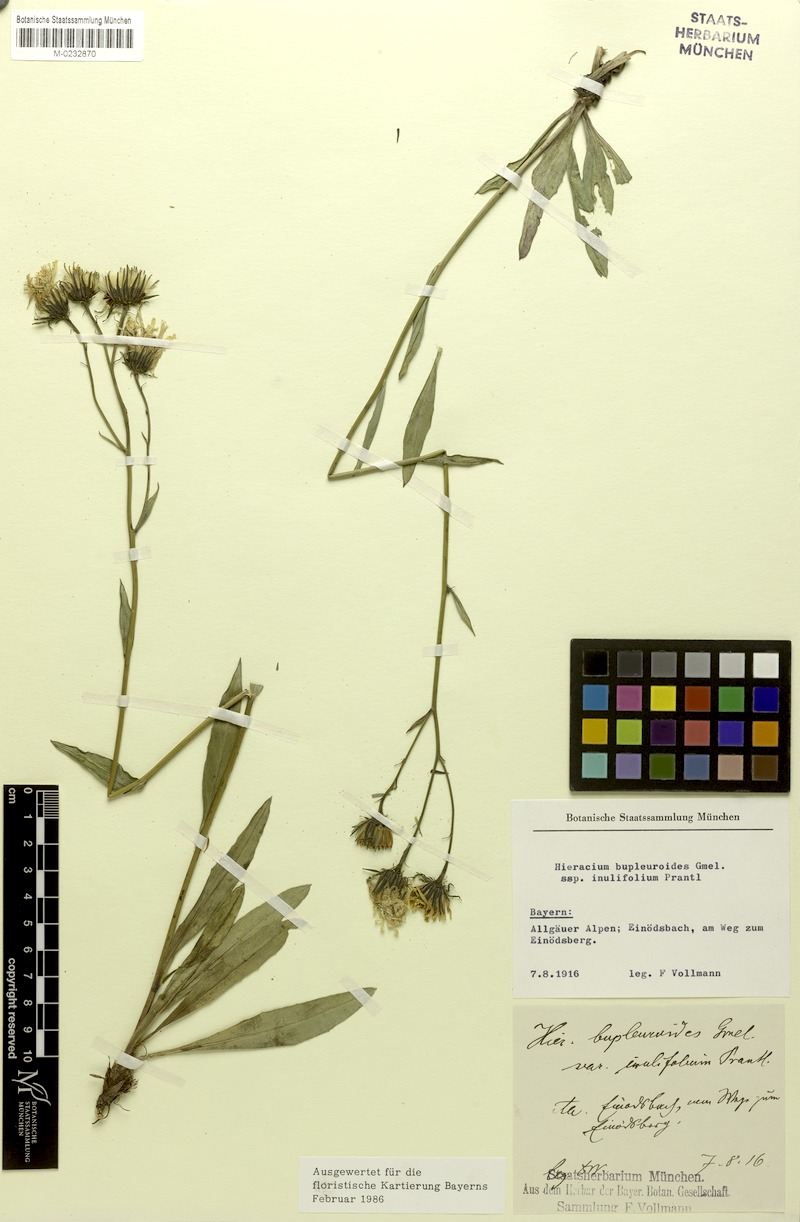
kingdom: Plantae
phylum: Tracheophyta
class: Magnoliopsida
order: Asterales
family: Asteraceae
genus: Hieracium
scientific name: Hieracium bupleuroides
